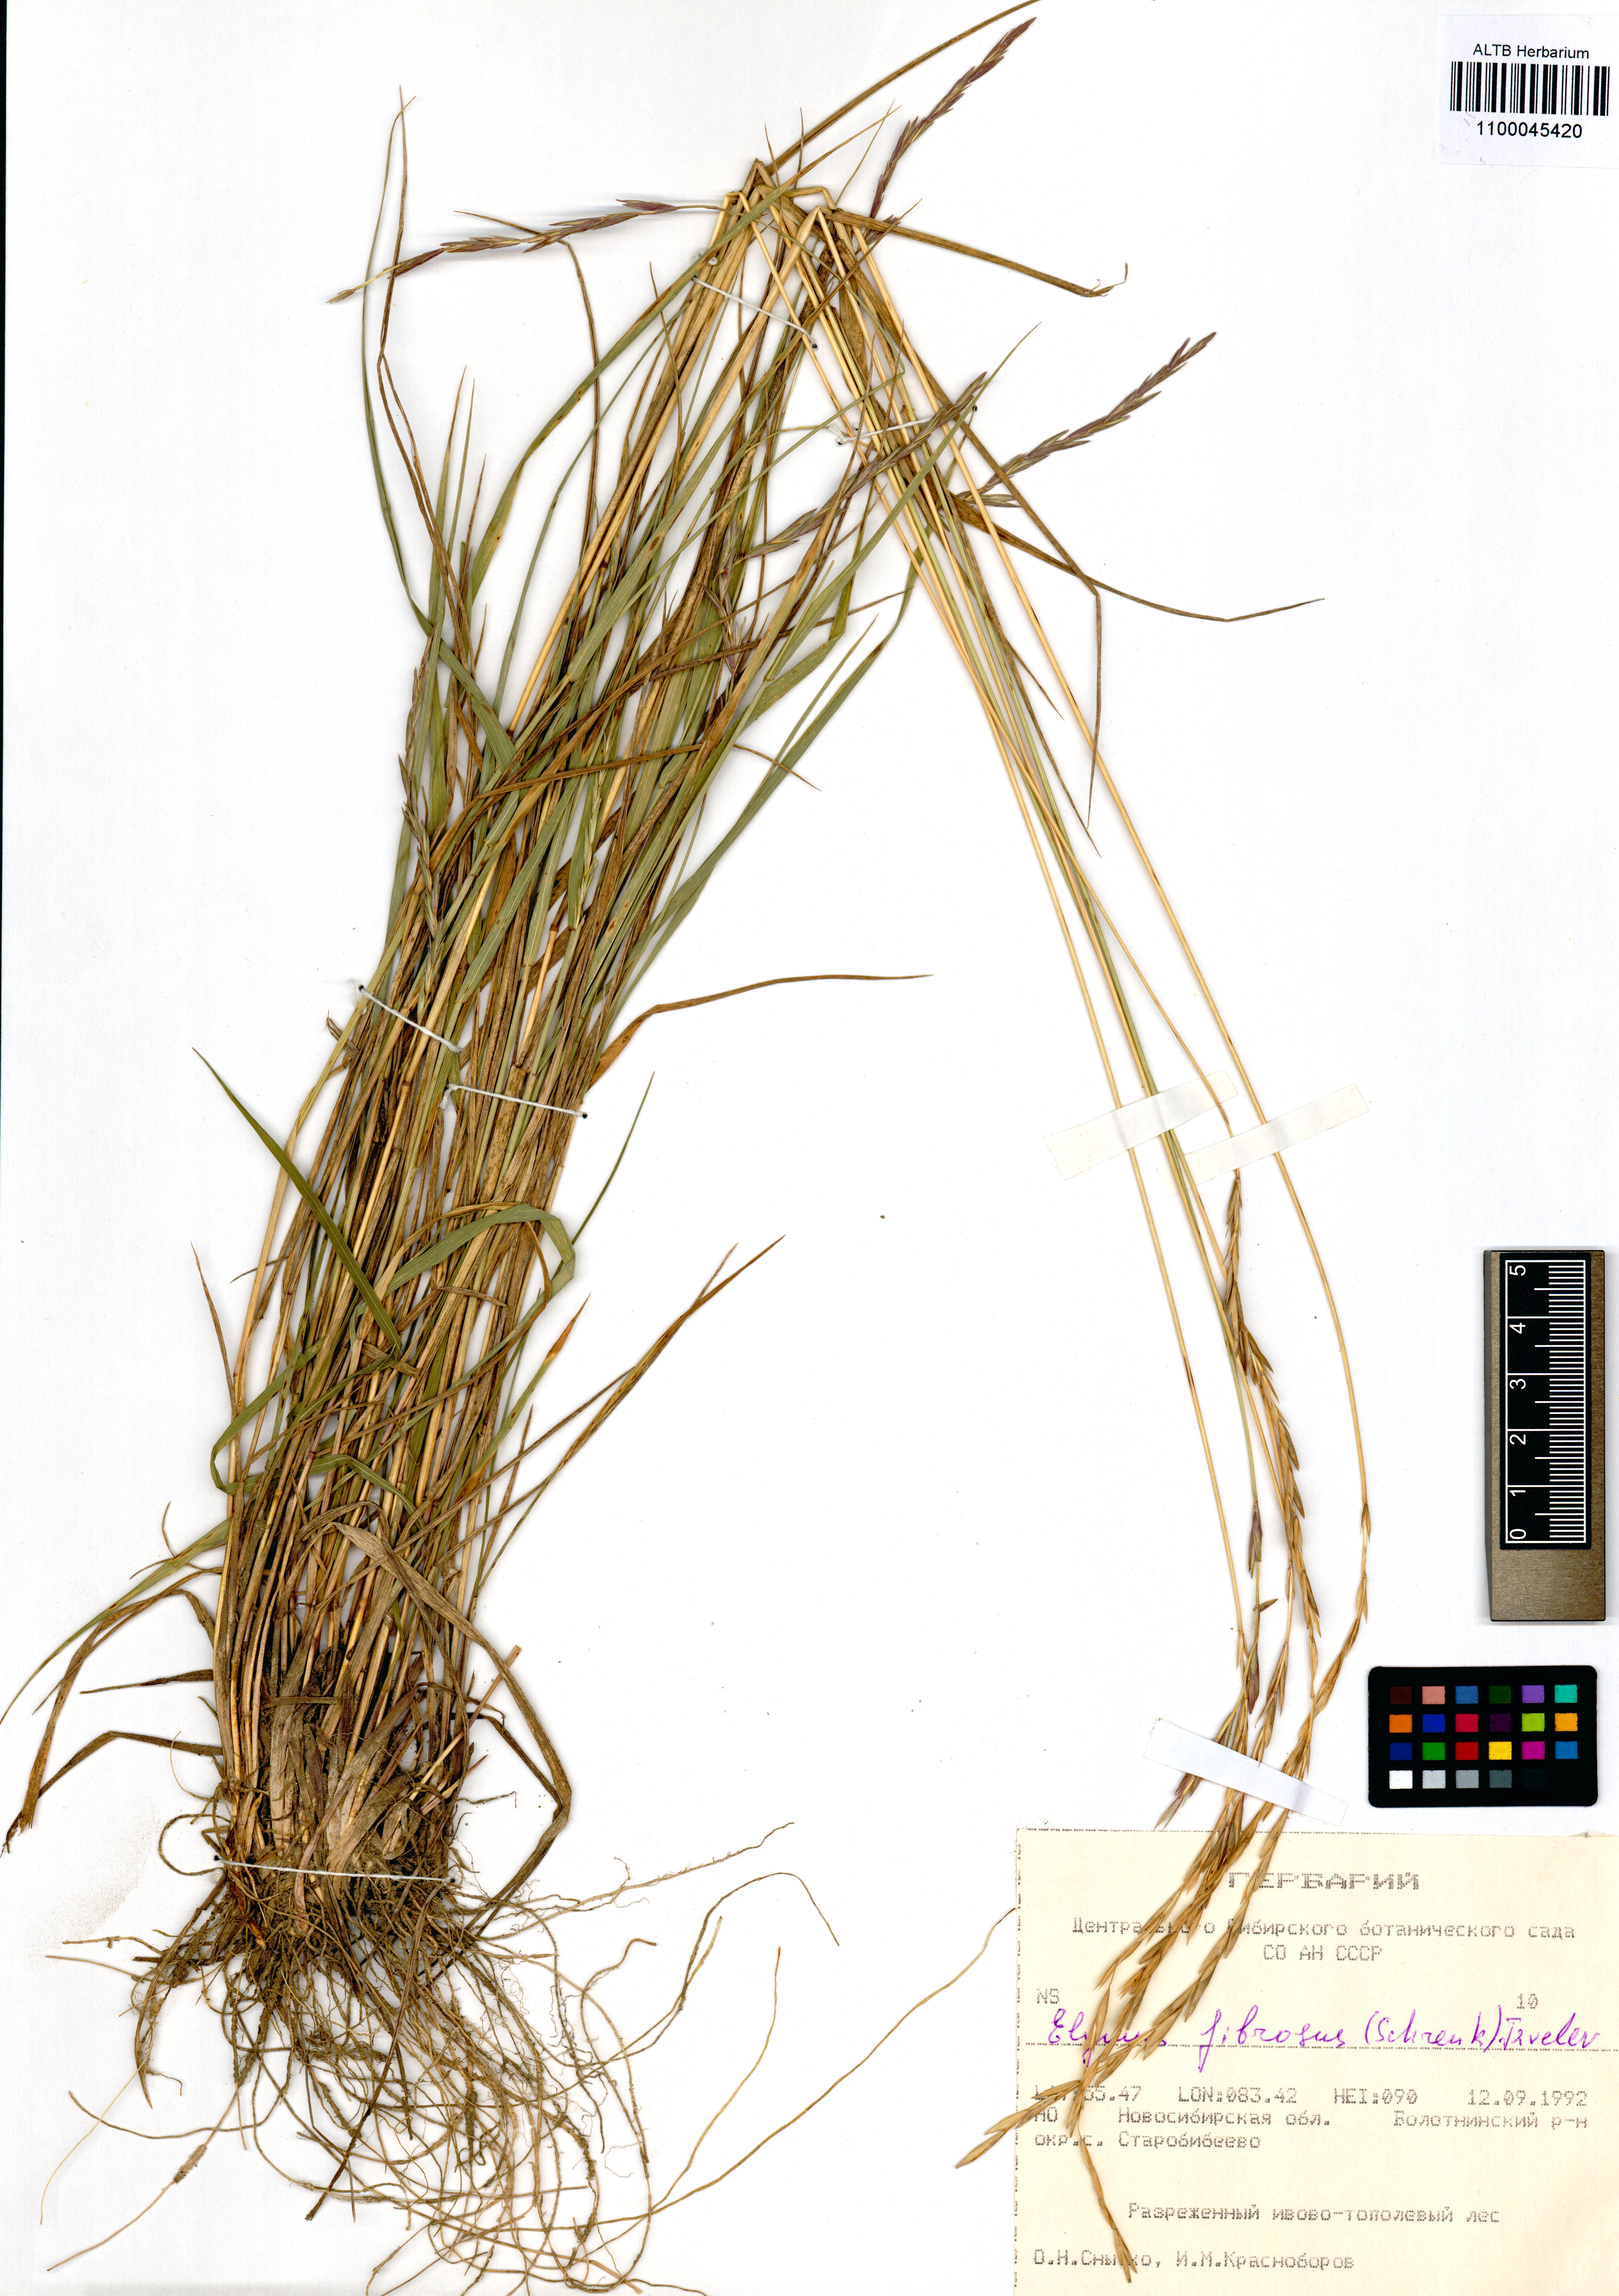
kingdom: Plantae
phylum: Tracheophyta
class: Liliopsida
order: Poales
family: Poaceae
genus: Elymus
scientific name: Elymus fibrosus
